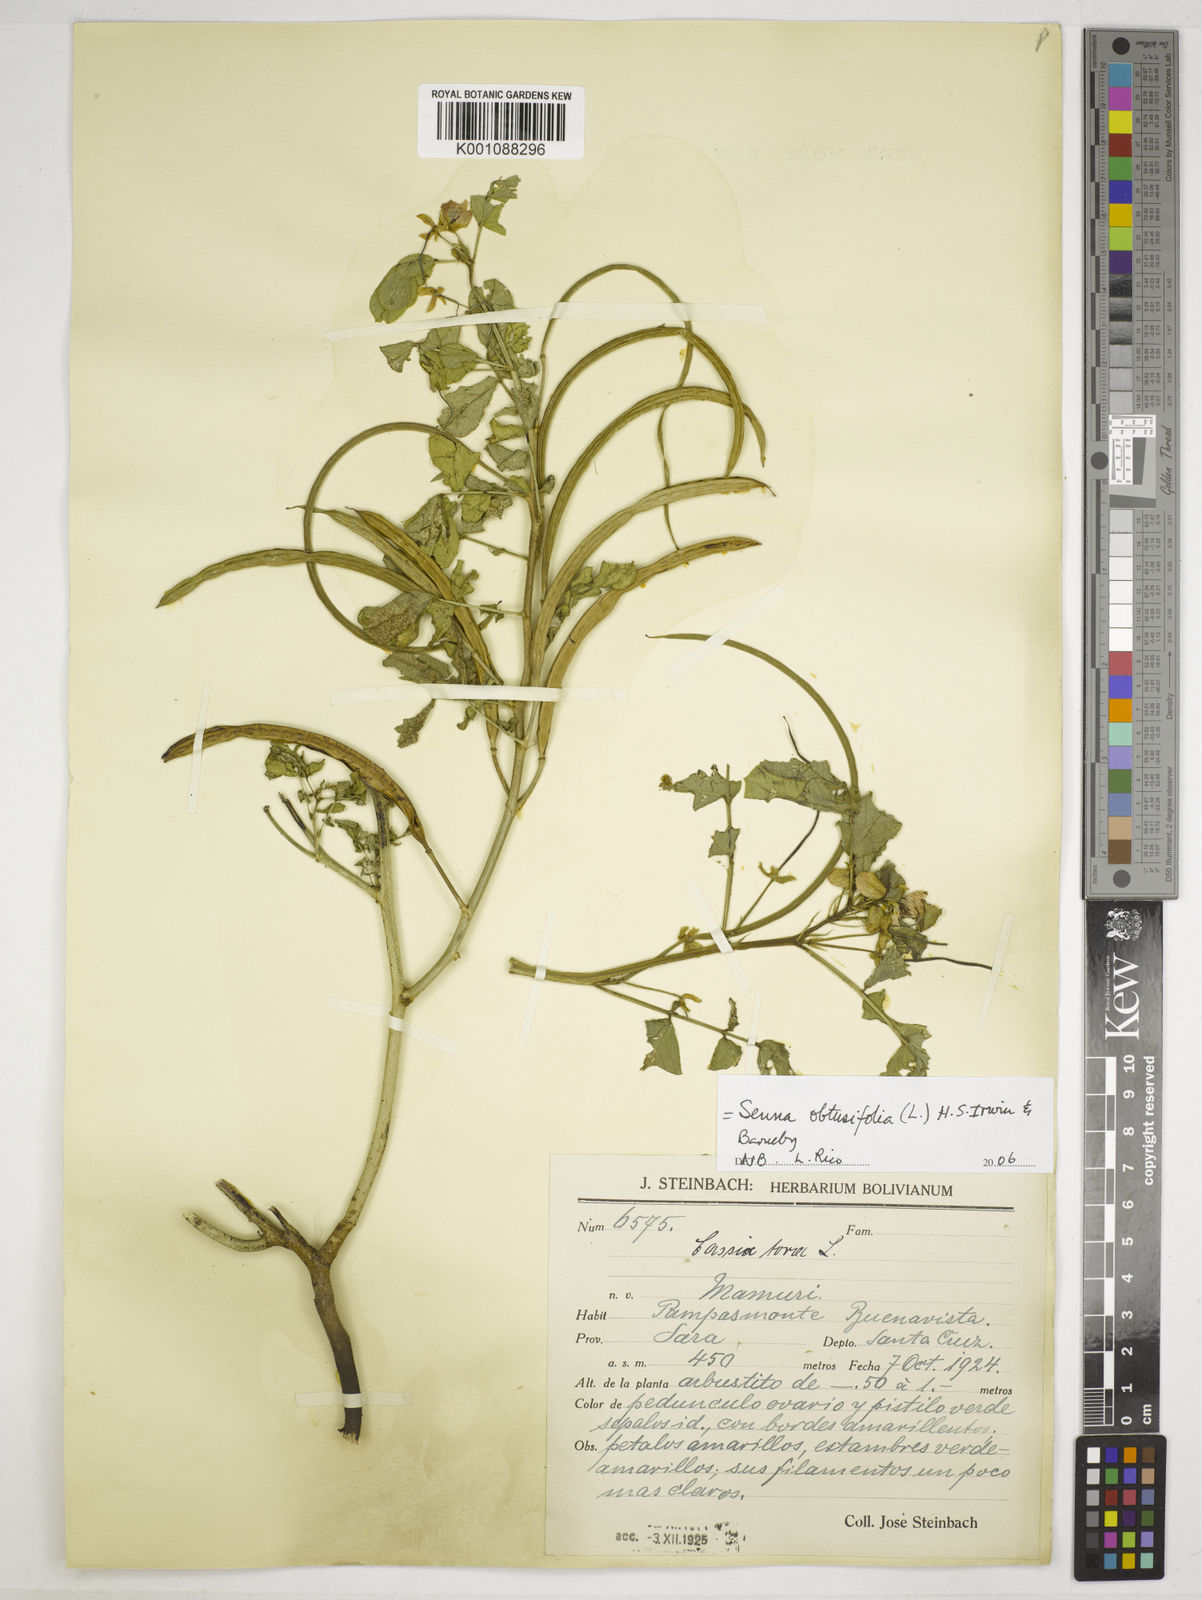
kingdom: Plantae
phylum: Tracheophyta
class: Magnoliopsida
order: Fabales
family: Fabaceae
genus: Senna
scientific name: Senna obtusifolia
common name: Java-bean
